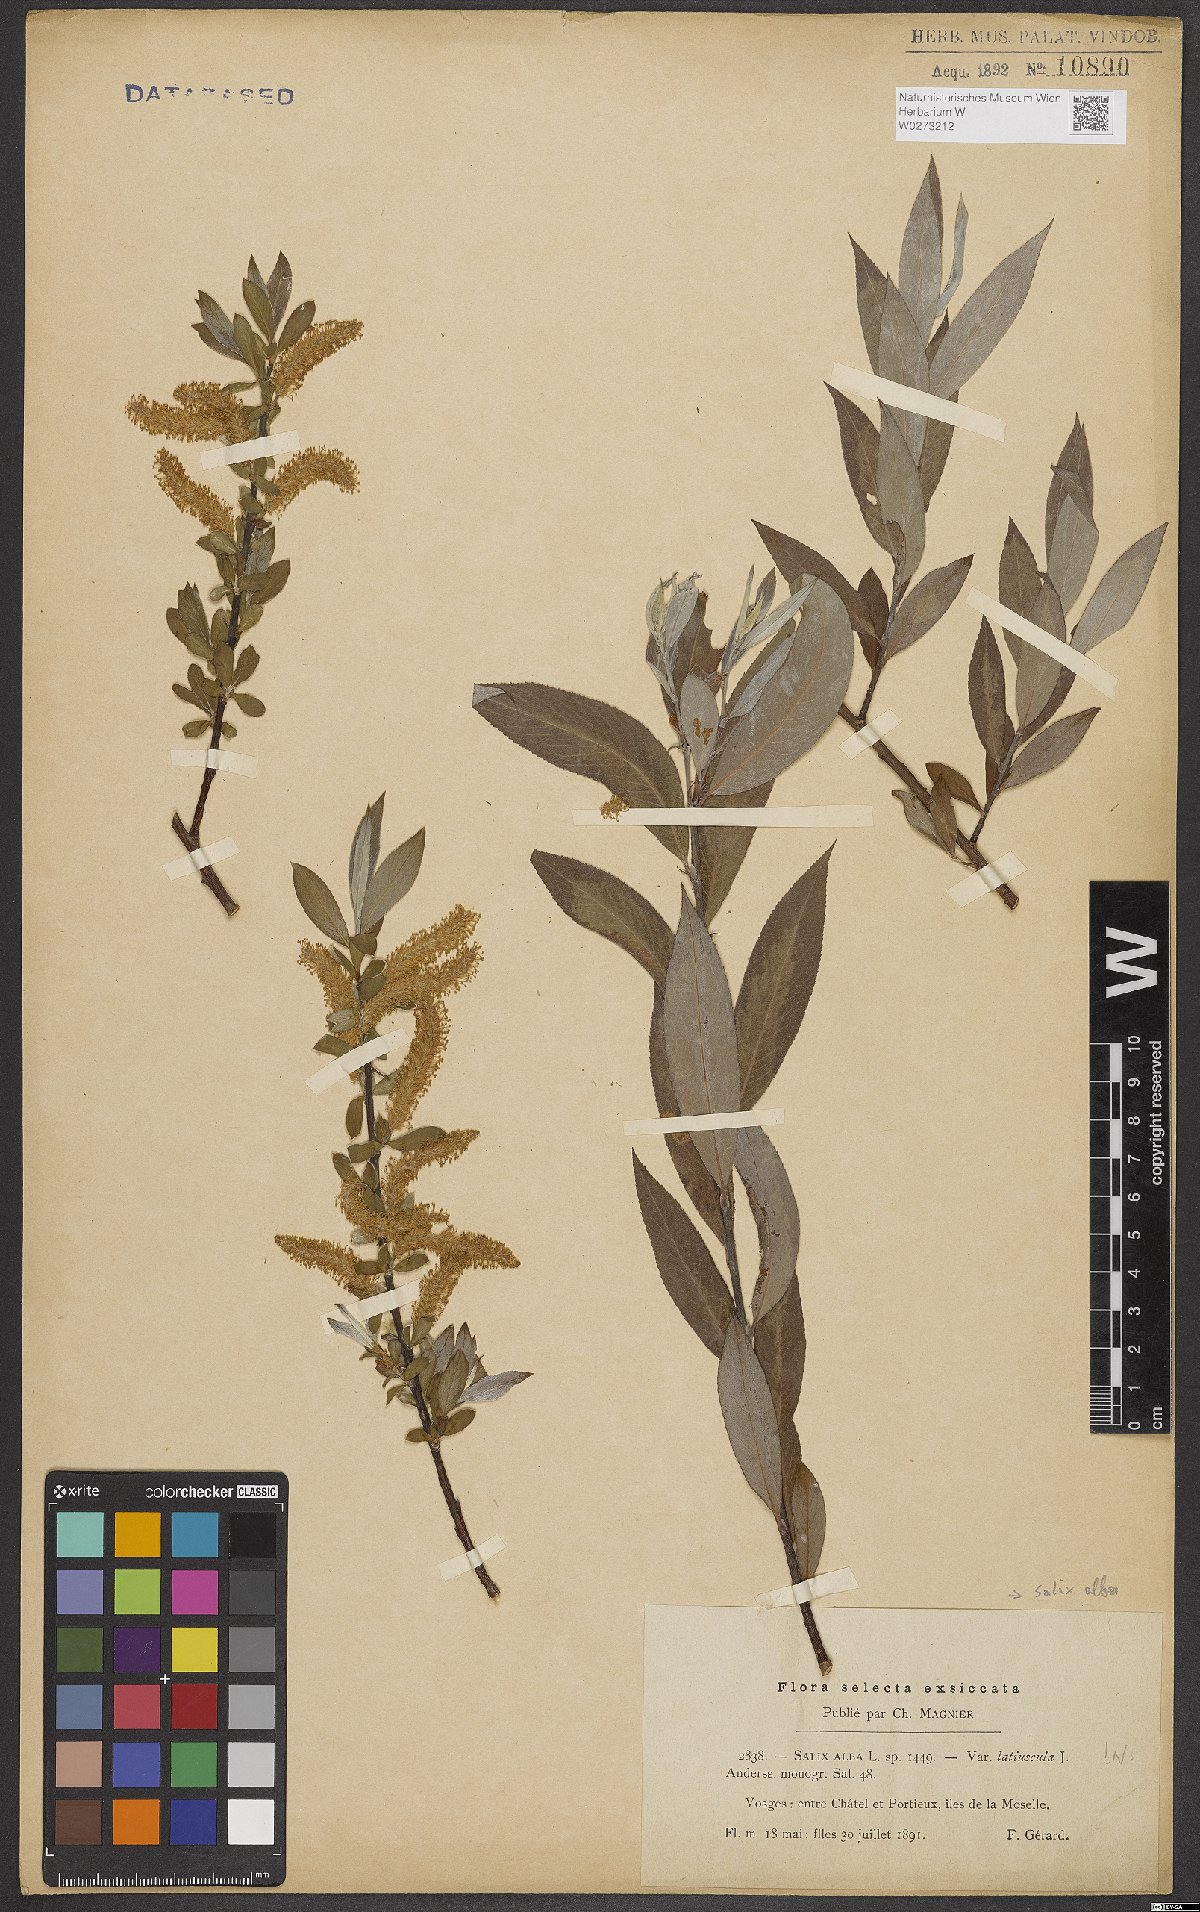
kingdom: Plantae
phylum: Tracheophyta
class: Magnoliopsida
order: Malpighiales
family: Salicaceae
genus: Salix
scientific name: Salix alba
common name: White willow
